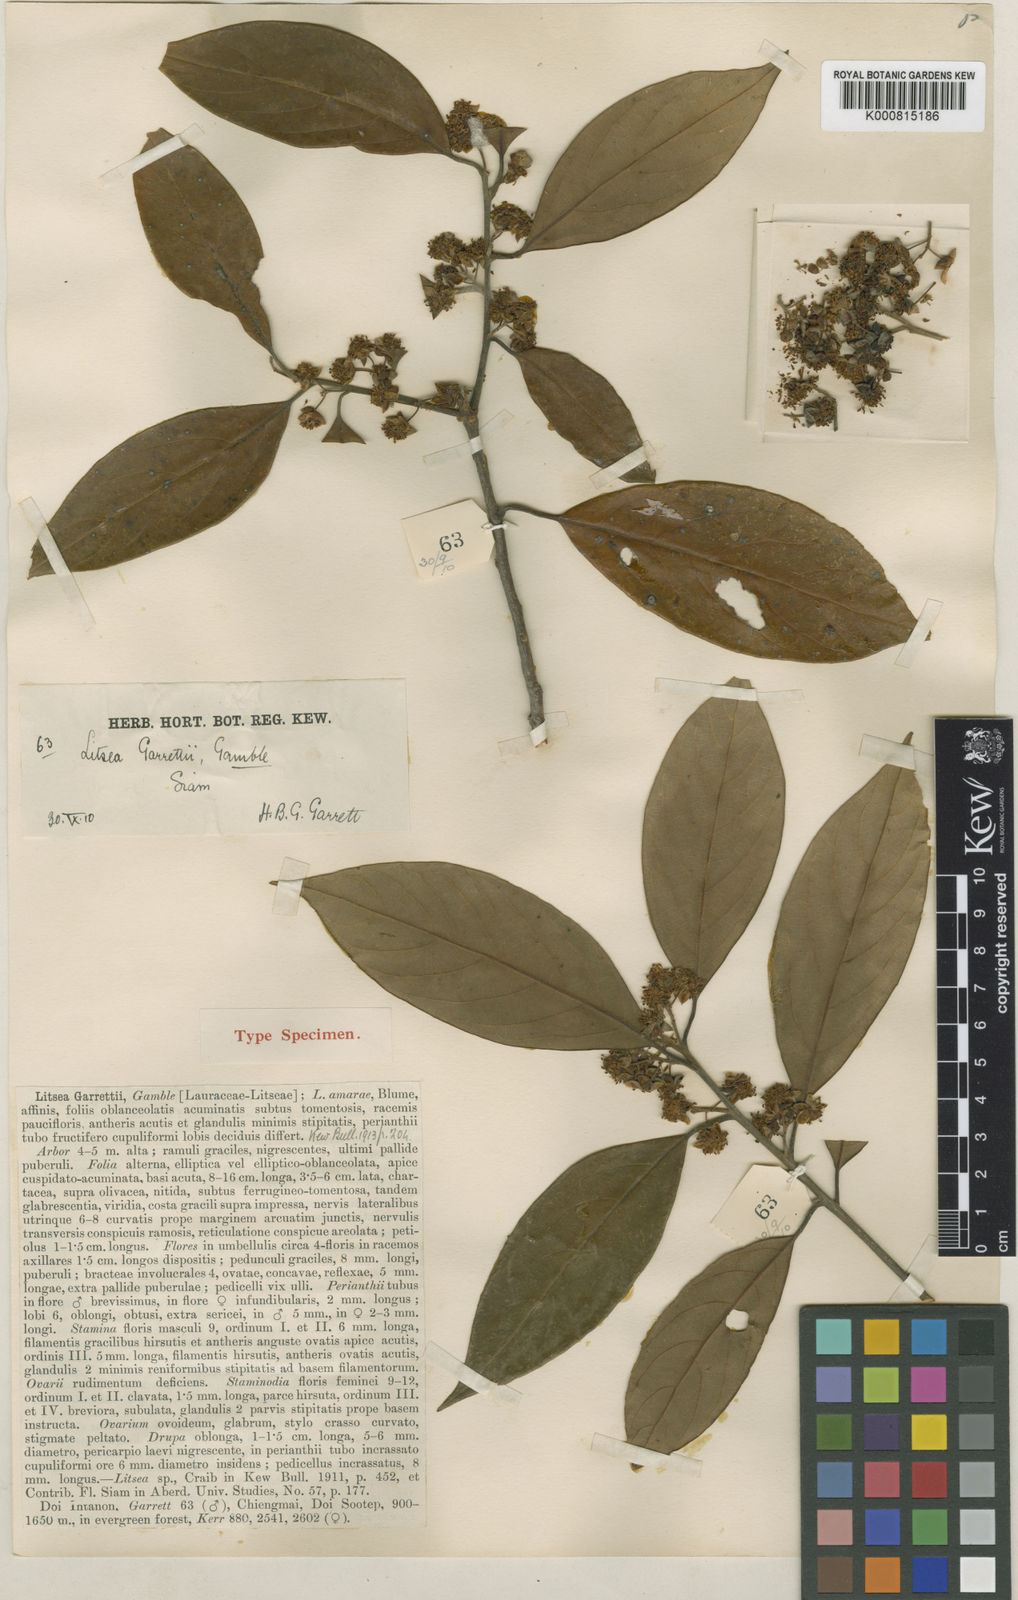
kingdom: Plantae
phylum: Tracheophyta
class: Magnoliopsida
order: Laurales
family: Lauraceae
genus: Litsea
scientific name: Litsea martabanica
